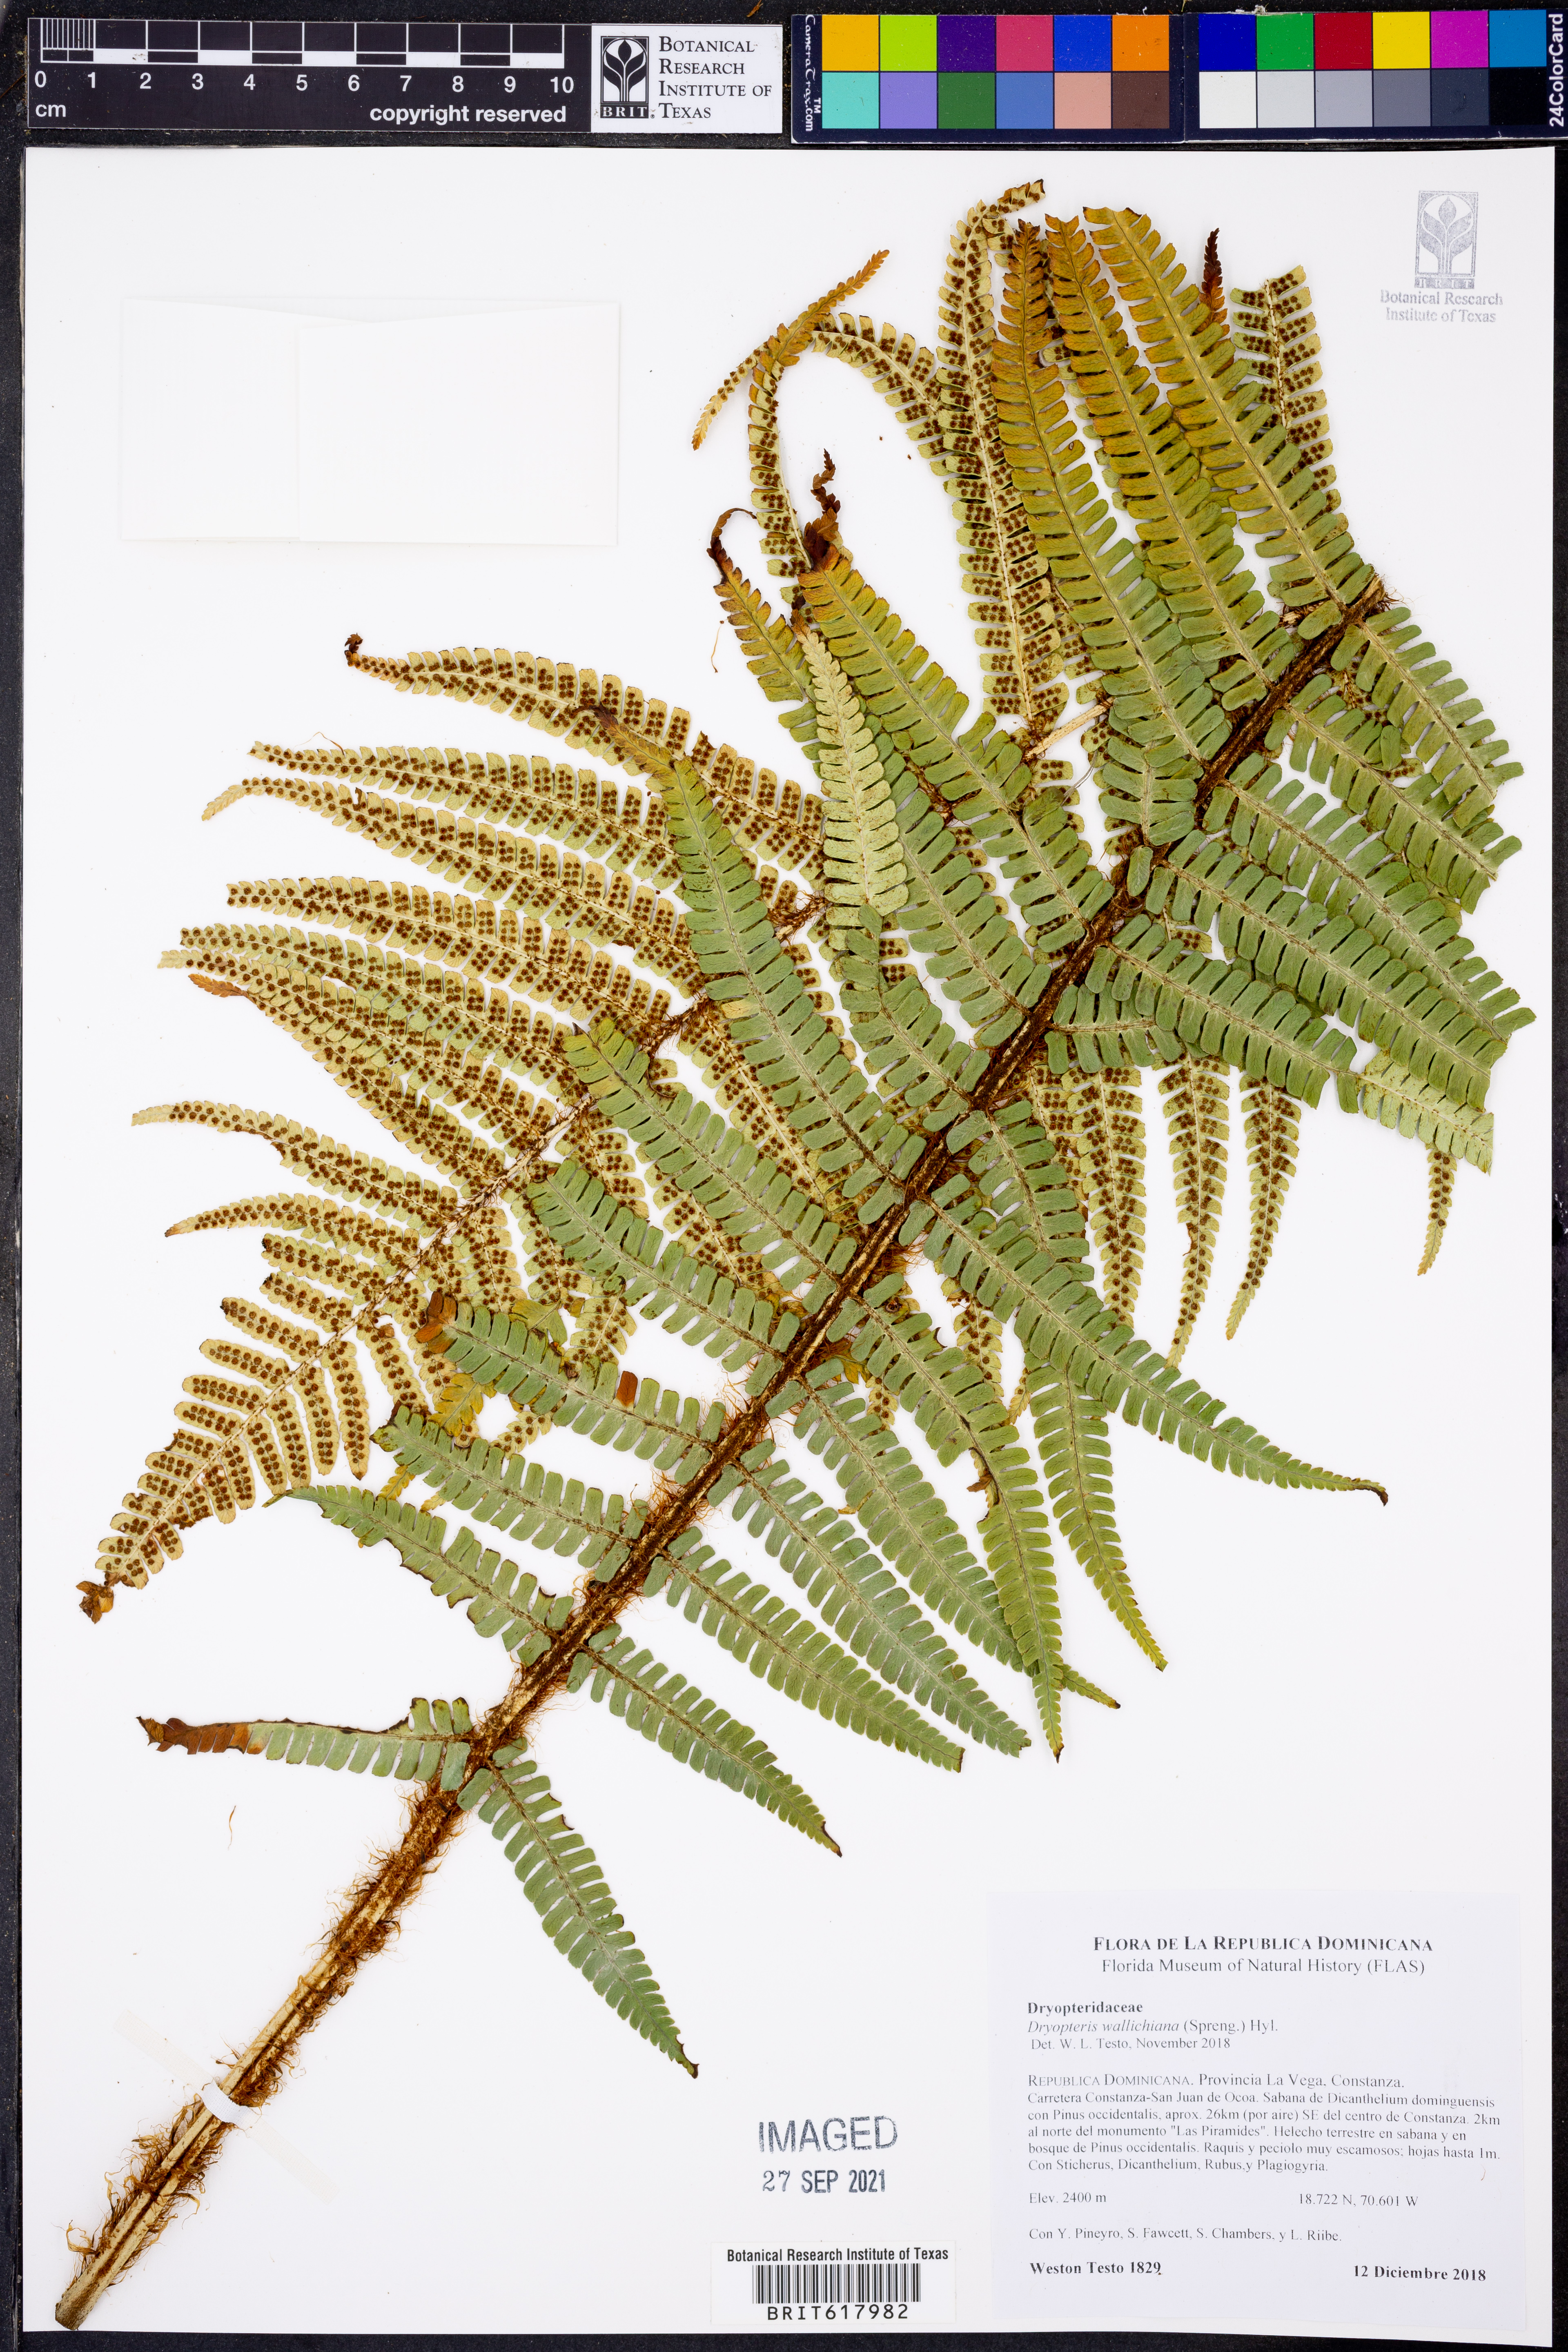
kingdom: Plantae
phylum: Tracheophyta
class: Polypodiopsida
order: Polypodiales
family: Dryopteridaceae
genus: Dryopteris
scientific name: Dryopteris wallichiana
